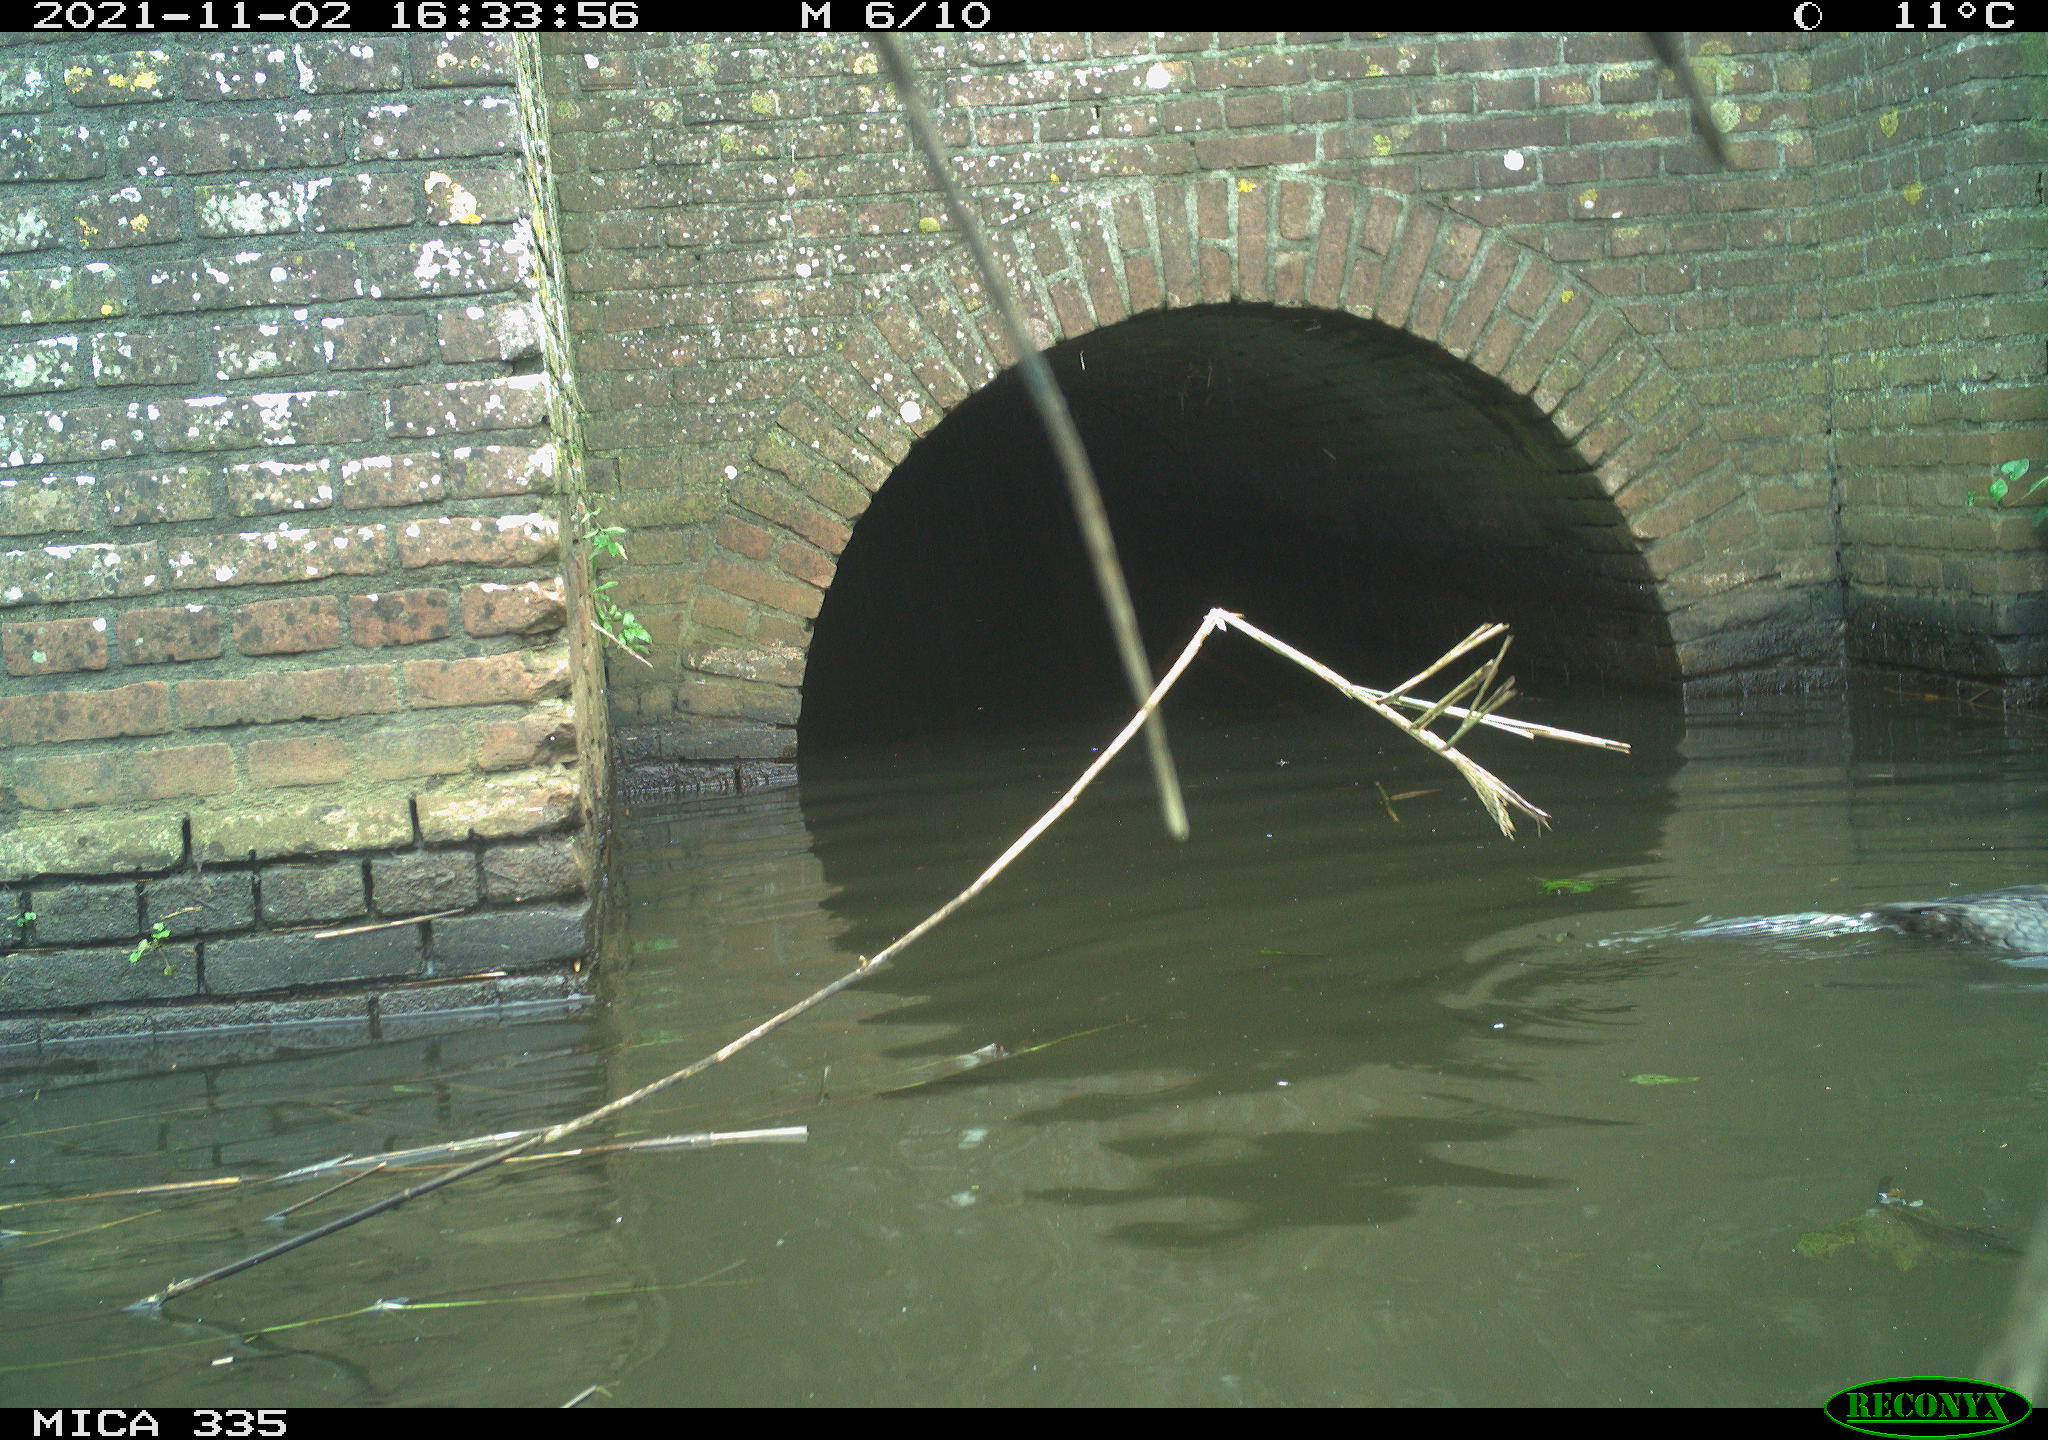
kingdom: Animalia
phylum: Chordata
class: Aves
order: Gruiformes
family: Rallidae
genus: Fulica
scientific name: Fulica atra
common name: Eurasian coot
